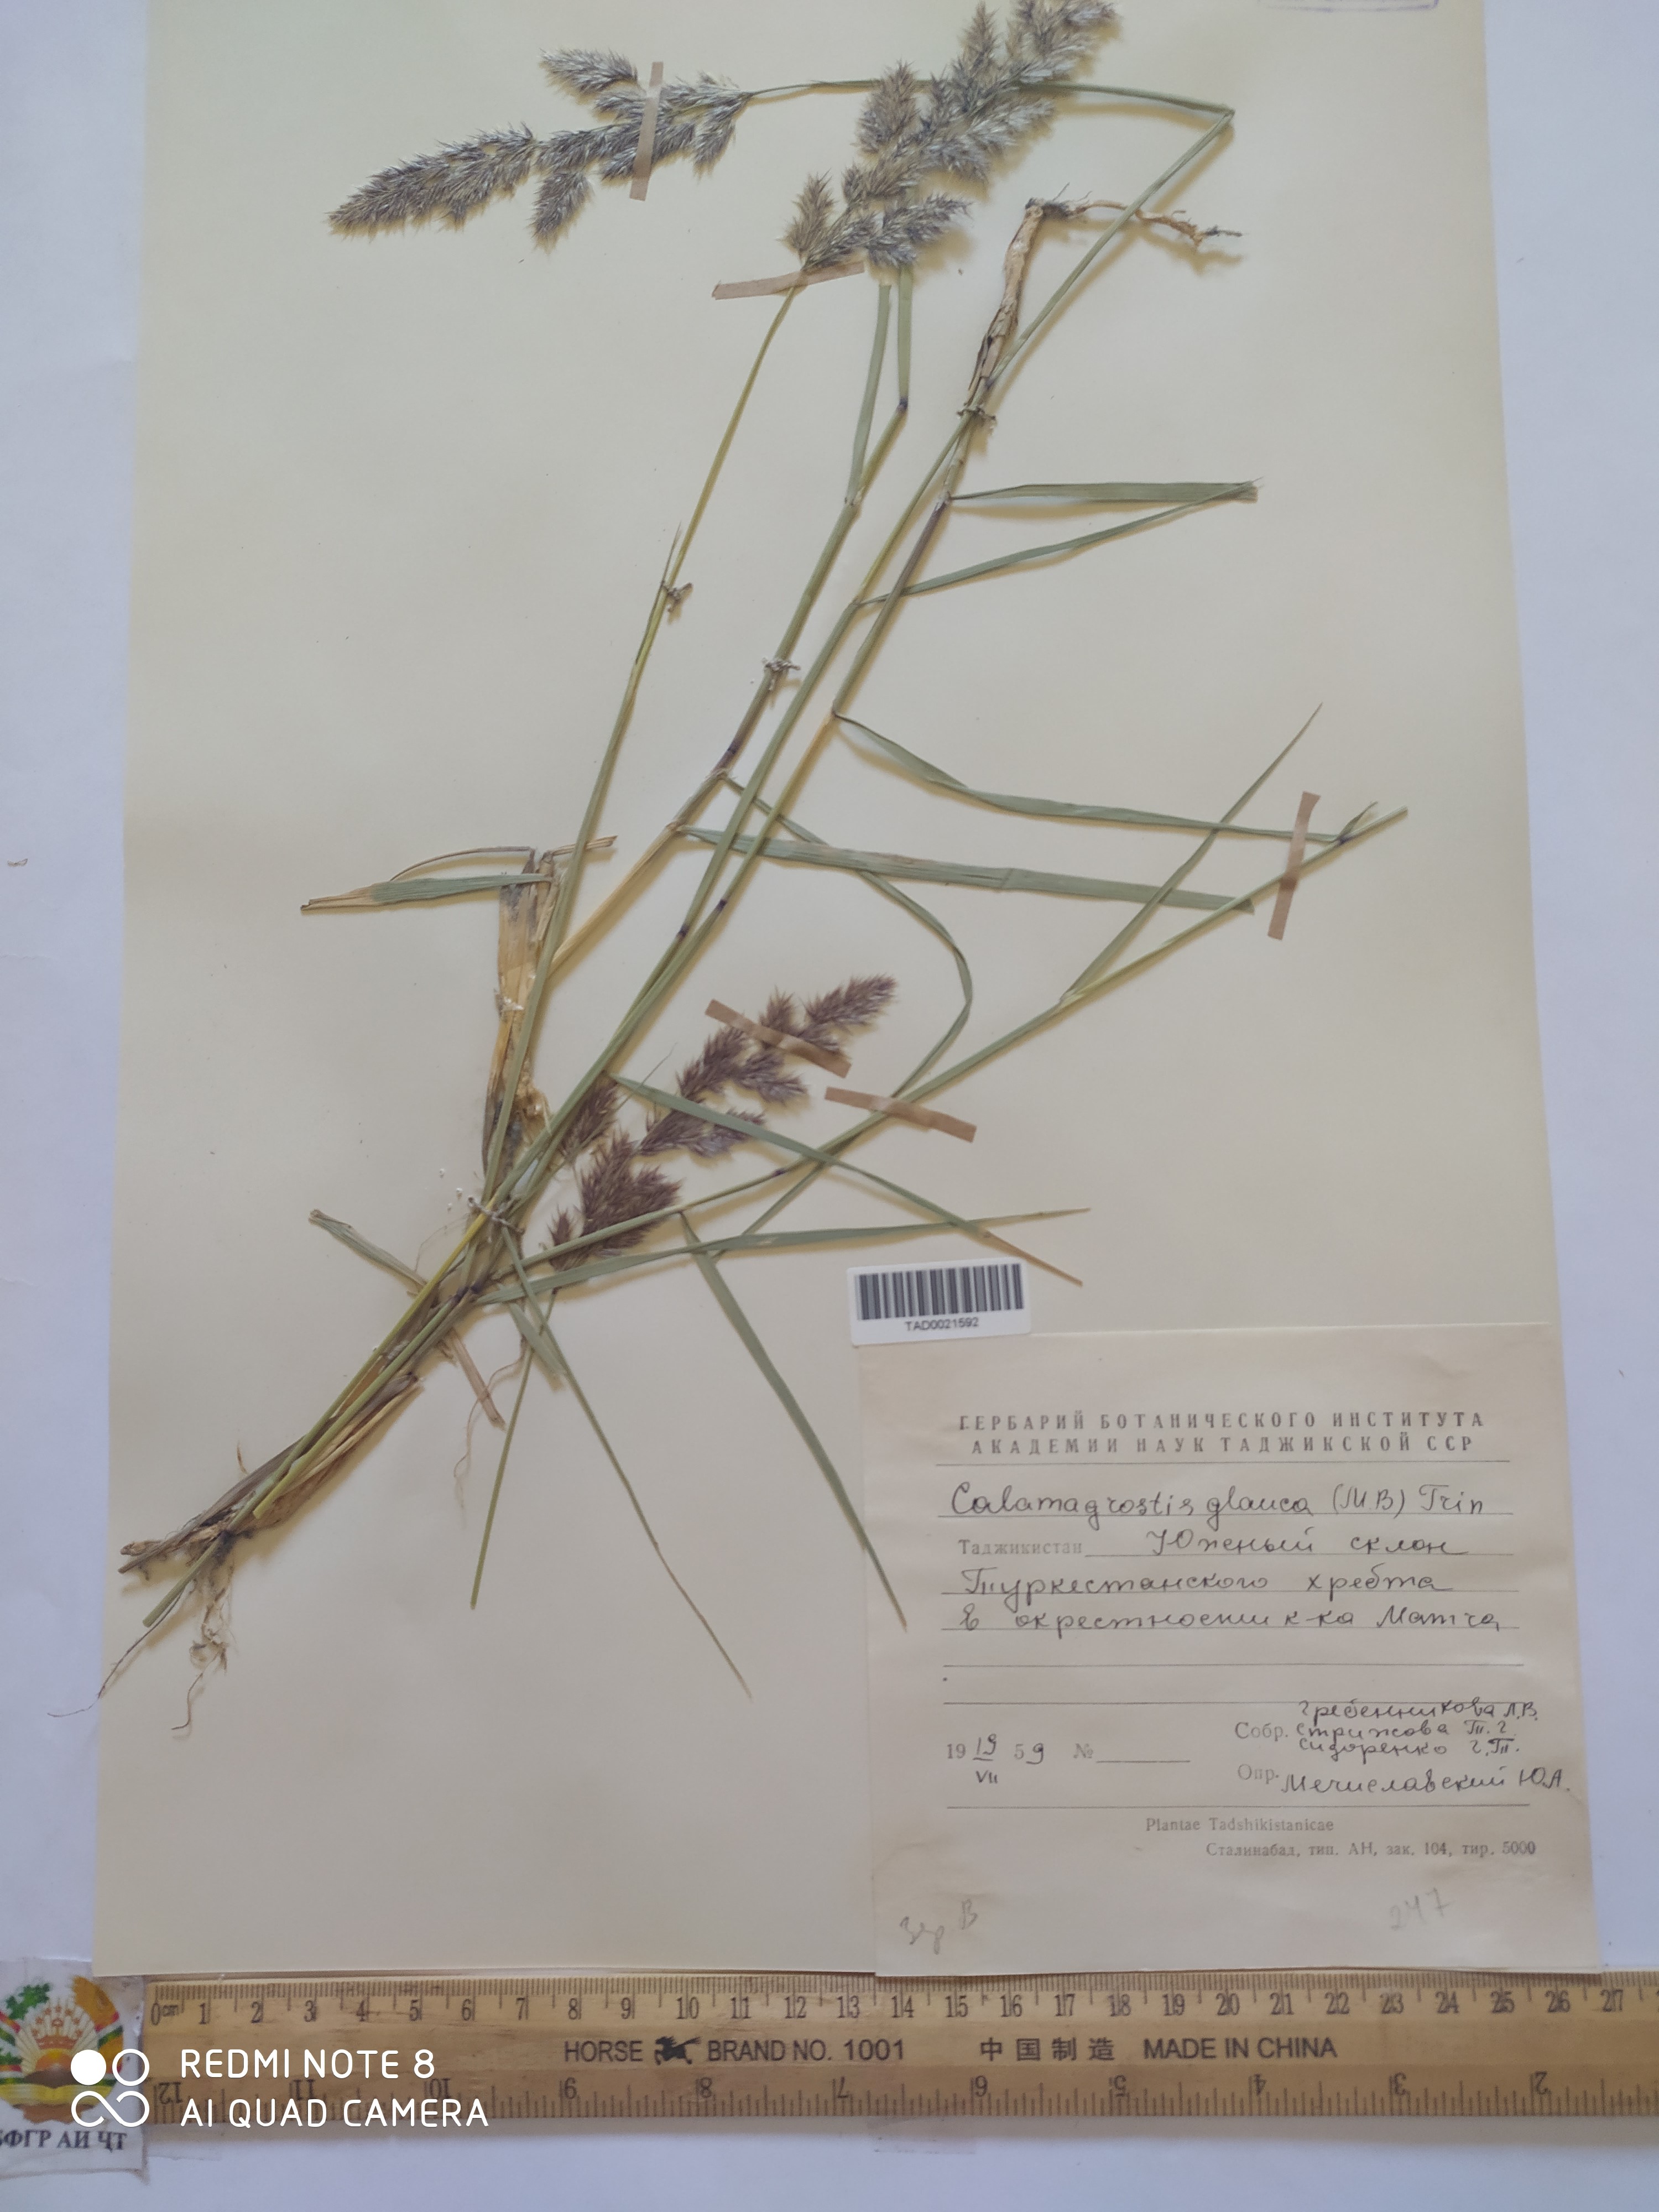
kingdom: Plantae
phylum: Tracheophyta
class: Liliopsida
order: Poales
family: Poaceae
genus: Calamagrostis
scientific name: Calamagrostis pseudophragmites
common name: Coastal small-reed
